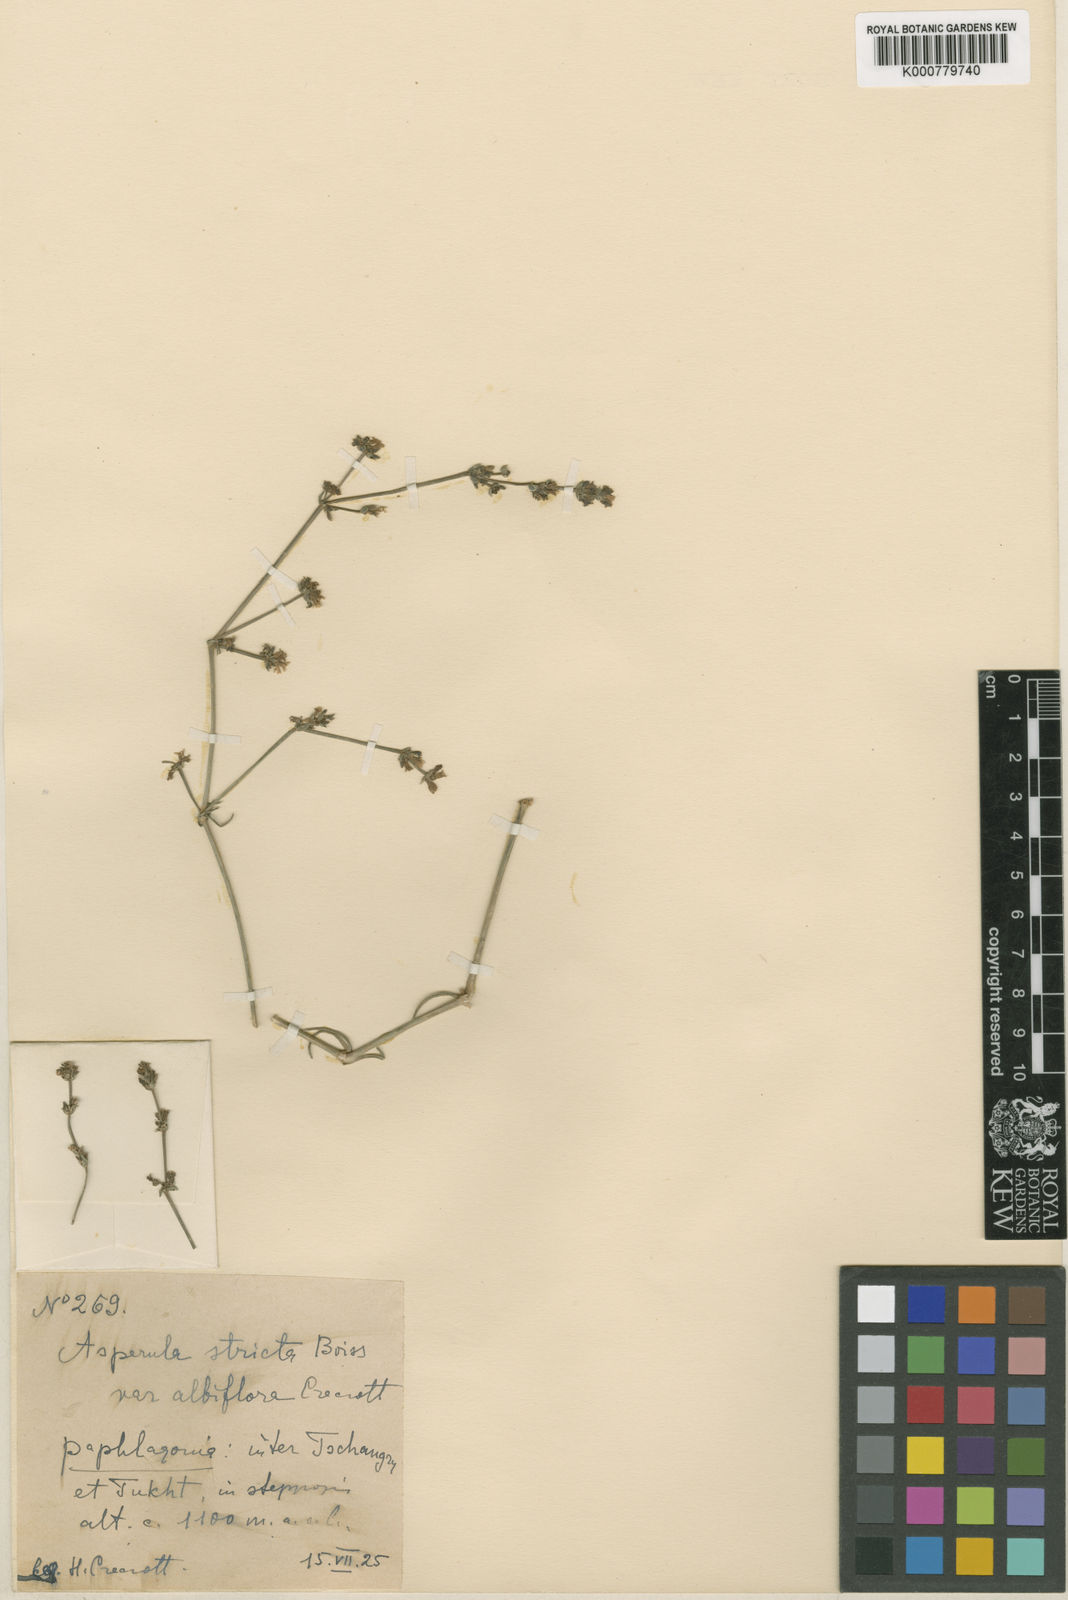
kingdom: Plantae
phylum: Tracheophyta
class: Magnoliopsida
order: Gentianales
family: Rubiaceae
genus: Cynanchica
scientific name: Cynanchica stricta
